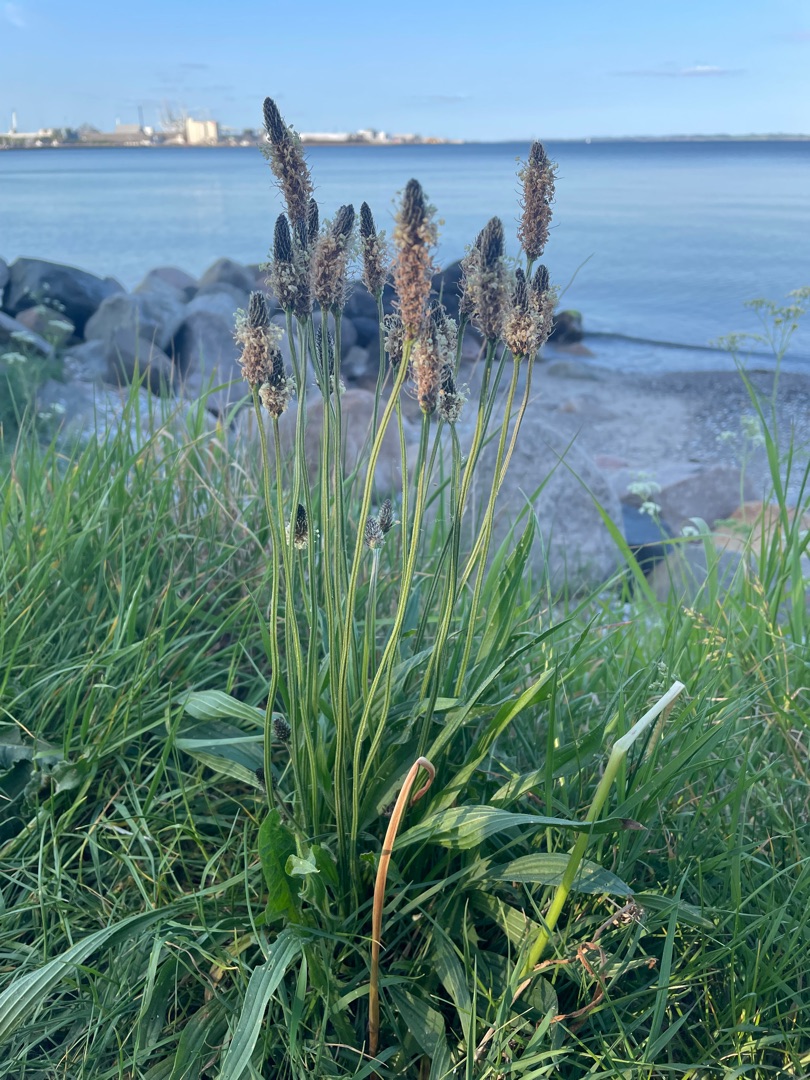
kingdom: Plantae
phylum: Tracheophyta
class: Magnoliopsida
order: Lamiales
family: Plantaginaceae
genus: Plantago
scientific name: Plantago lanceolata
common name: Lancet-vejbred
